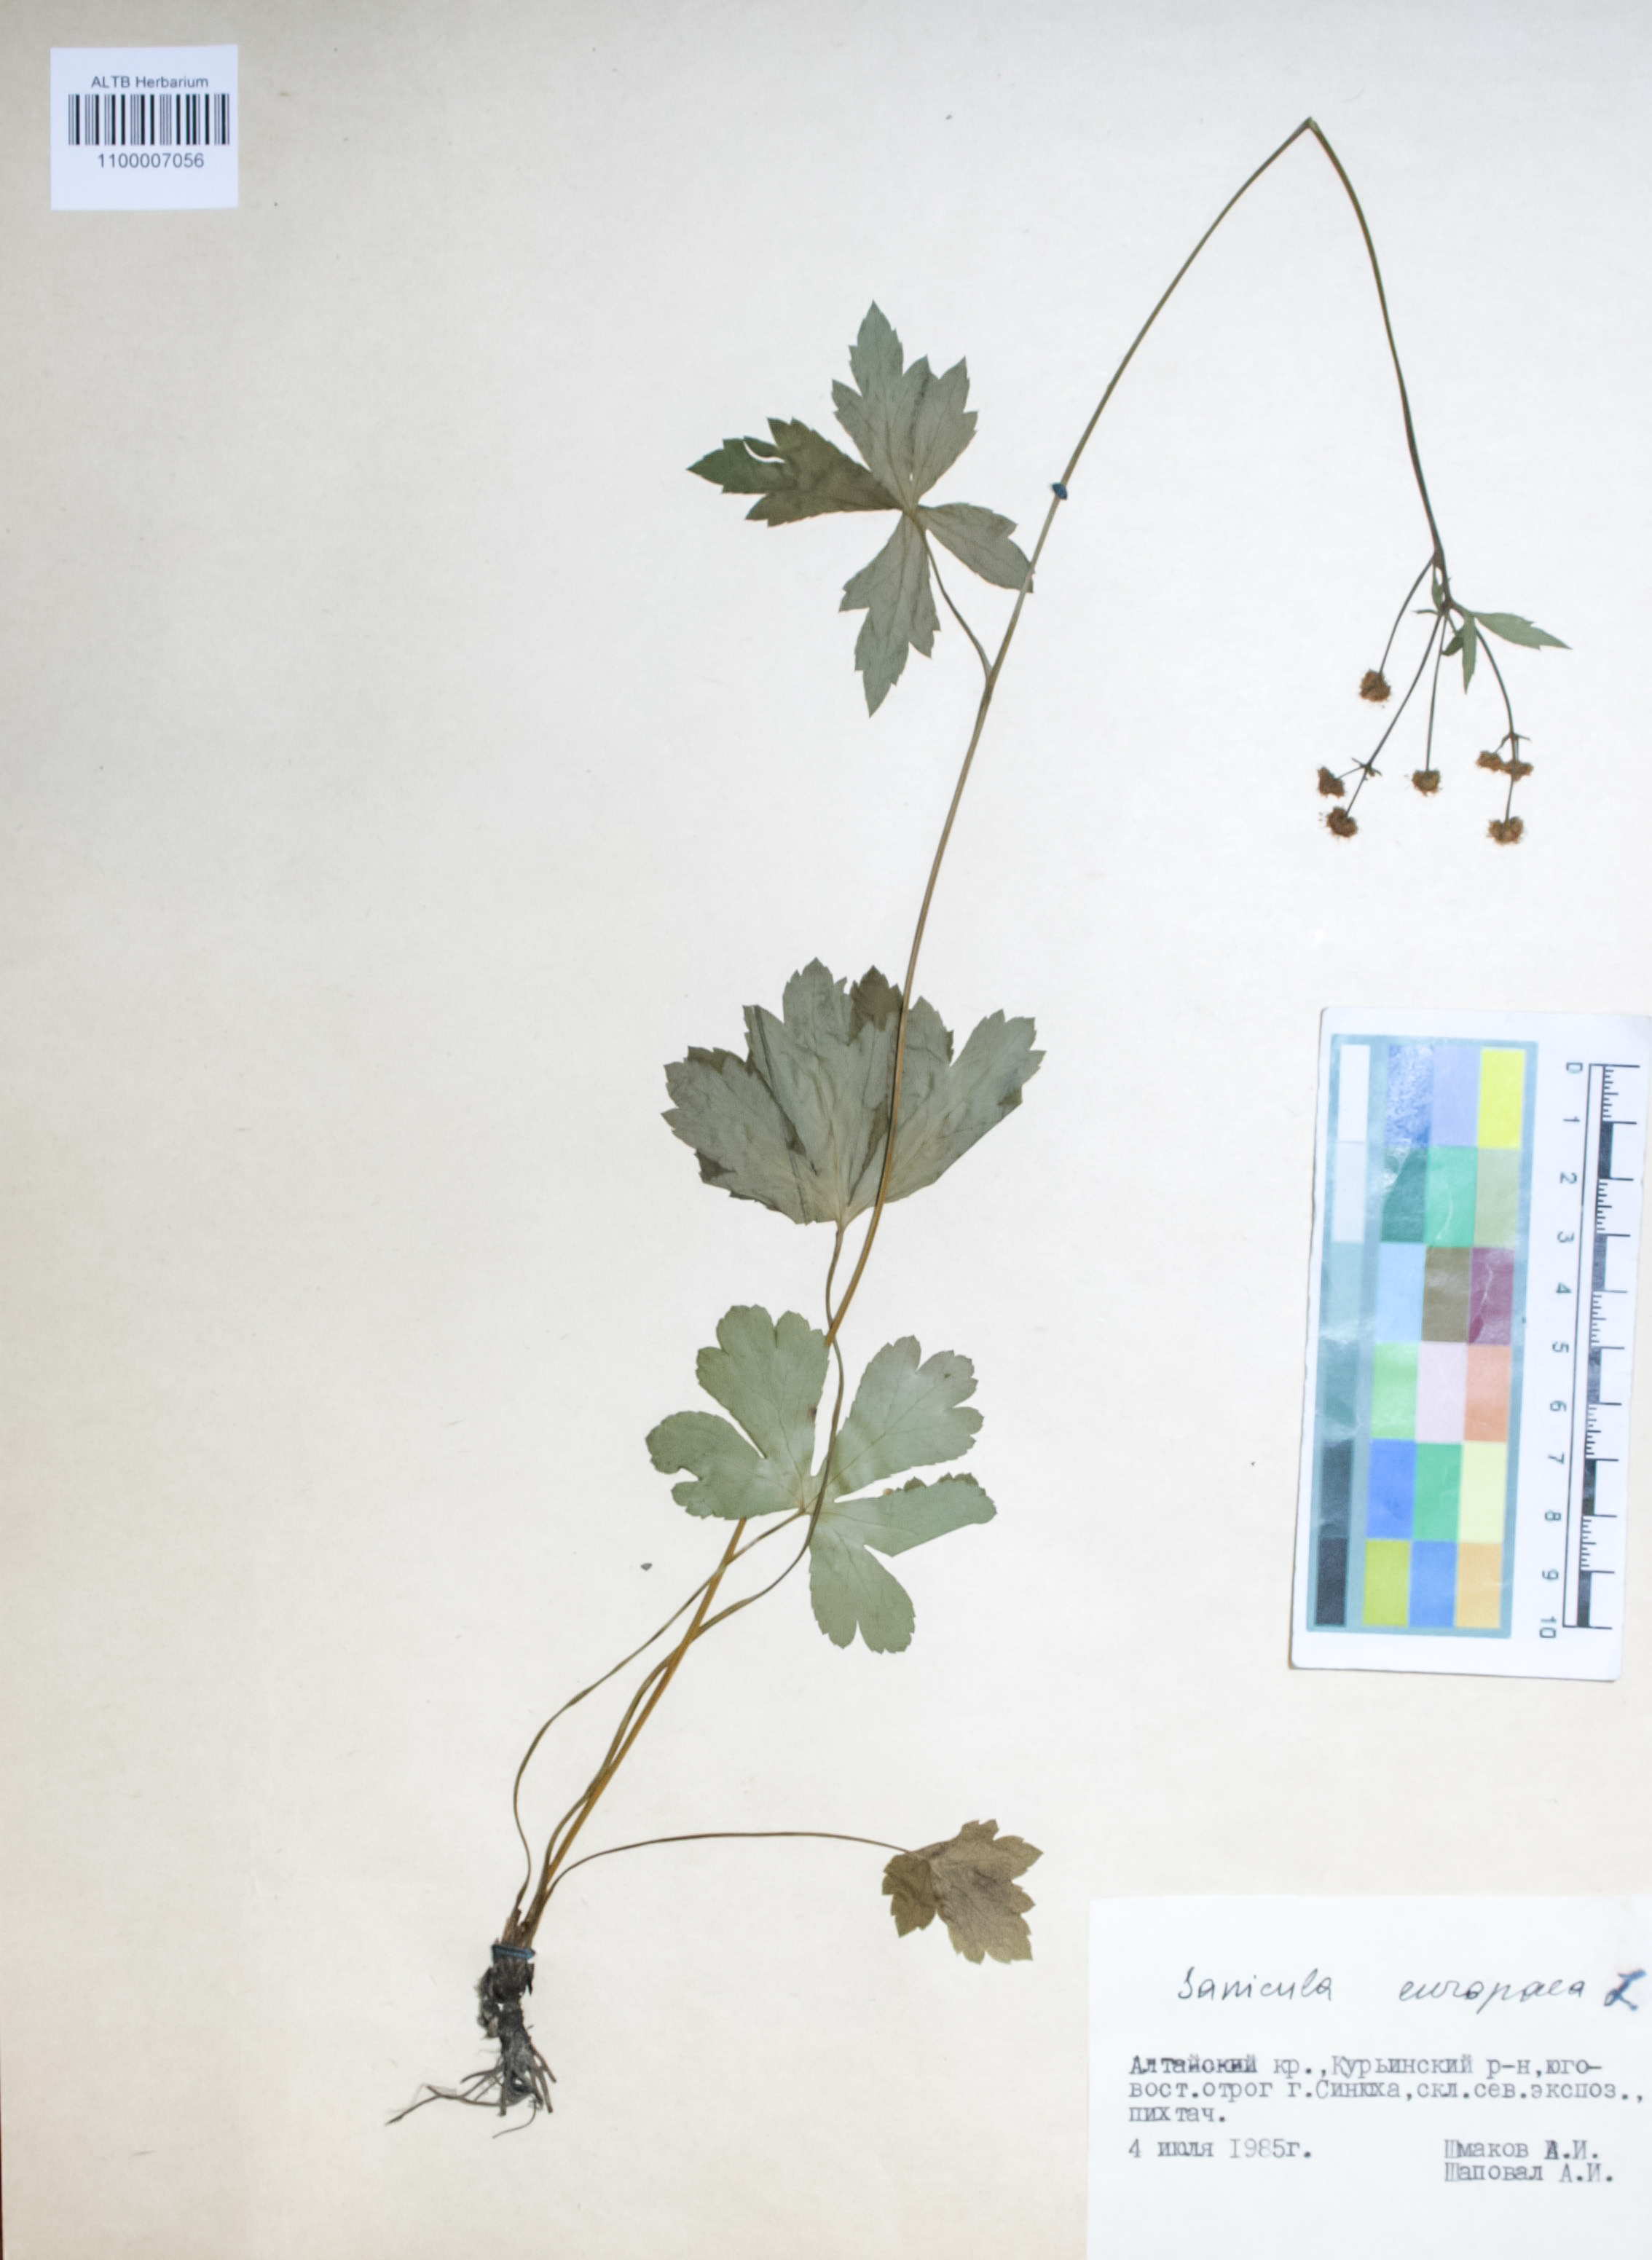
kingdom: Plantae
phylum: Tracheophyta
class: Magnoliopsida
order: Apiales
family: Apiaceae
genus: Sanicula
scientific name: Sanicula europaea
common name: Sanicle
